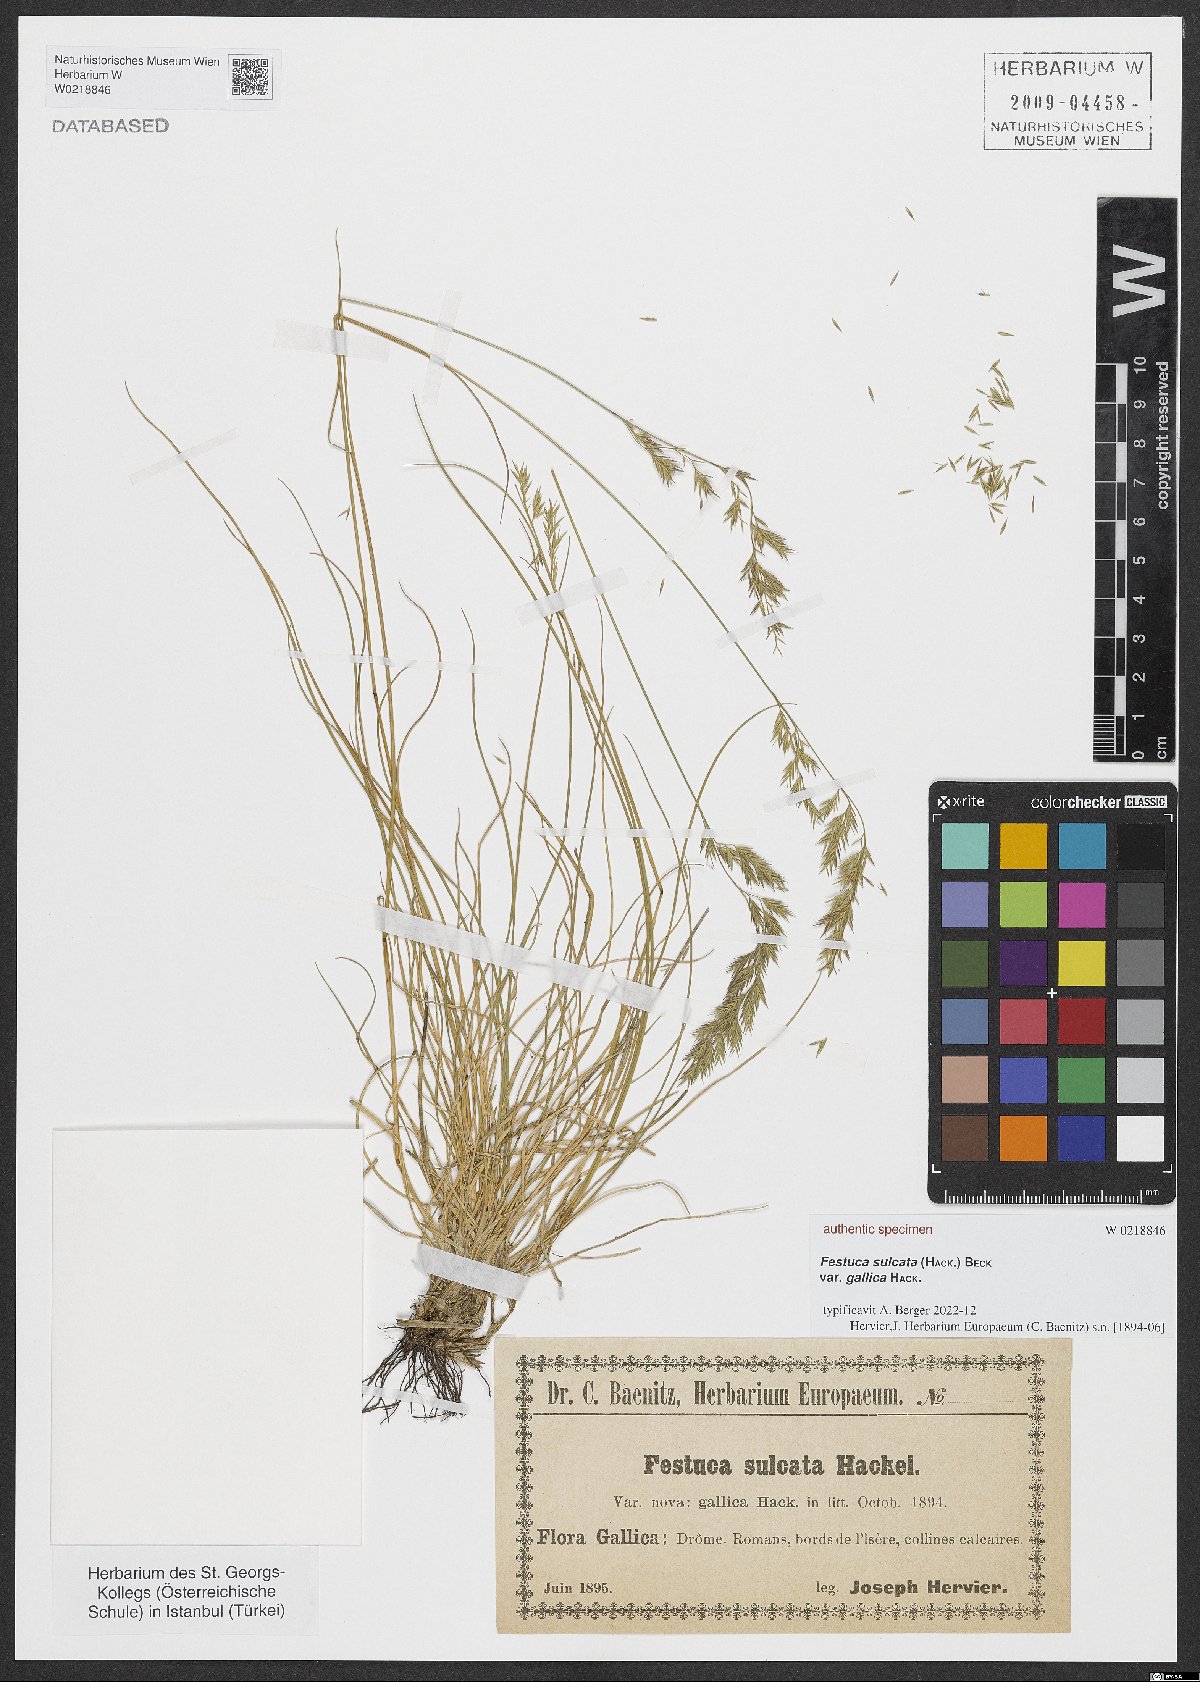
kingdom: Plantae
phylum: Tracheophyta
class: Liliopsida
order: Poales
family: Poaceae
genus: Festuca
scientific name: Festuca sulcata
